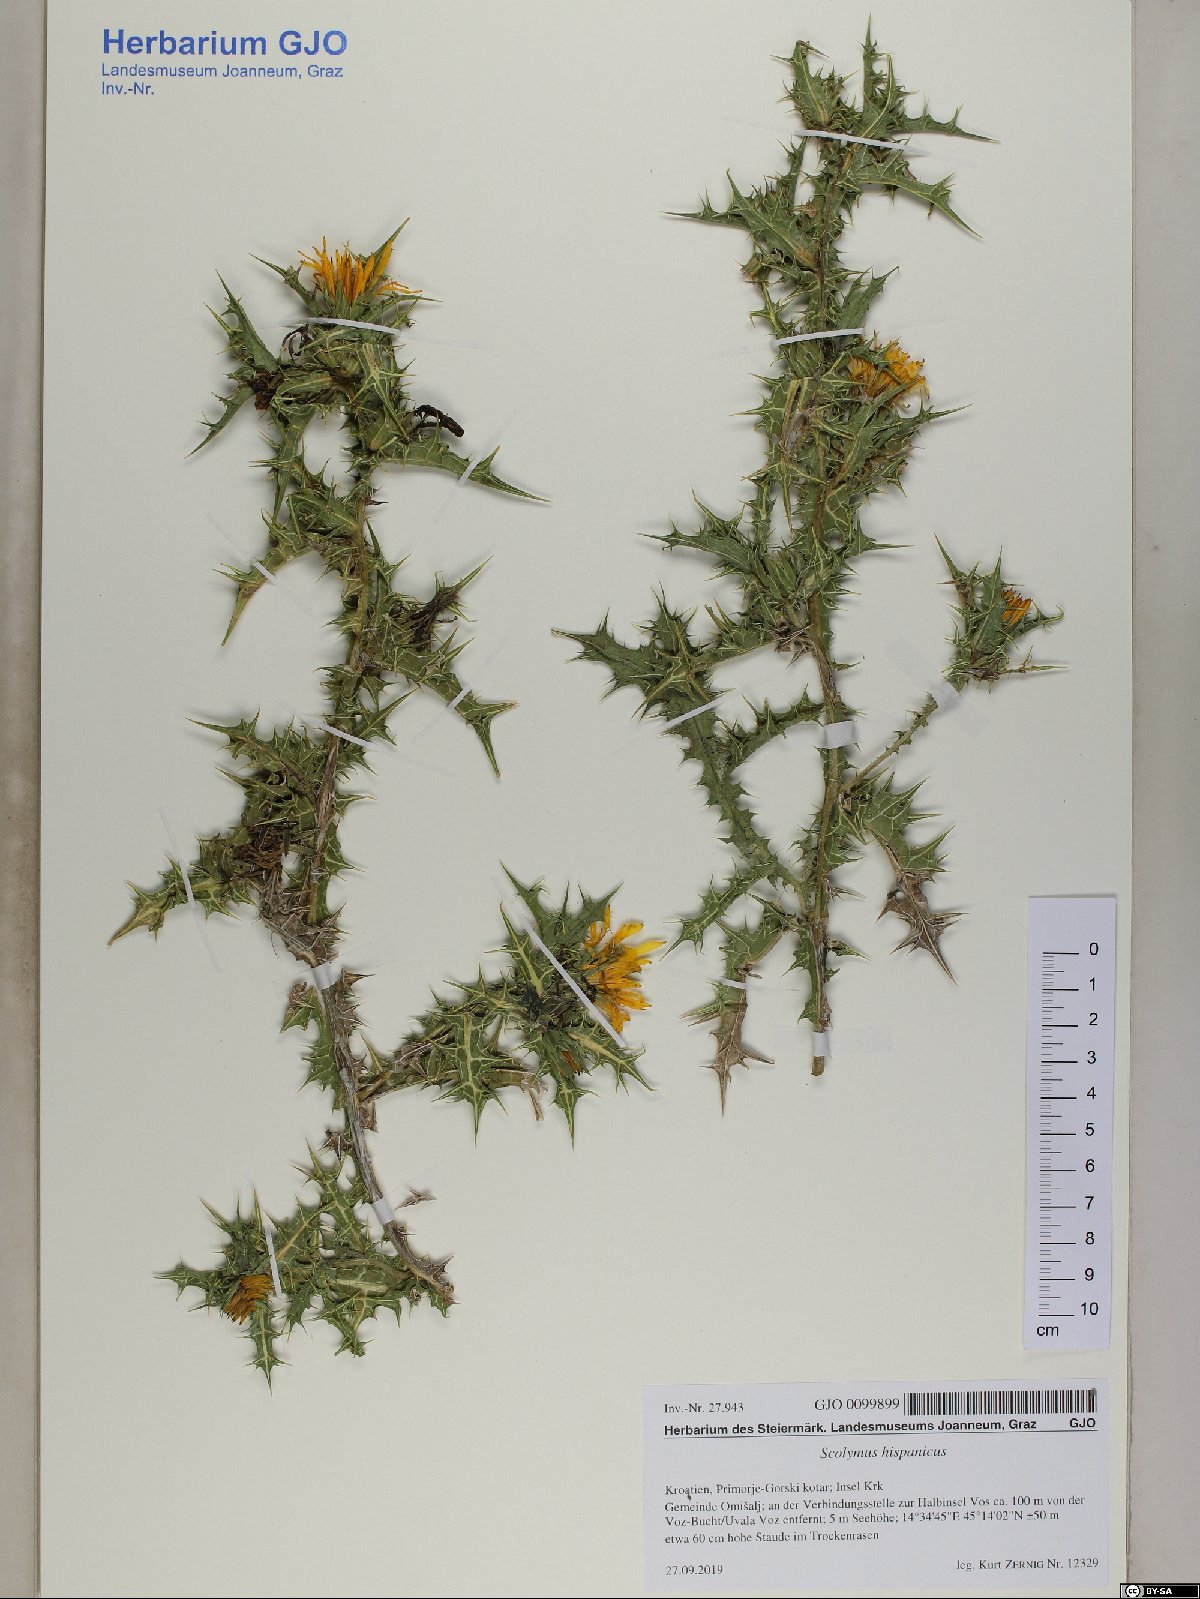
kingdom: Plantae
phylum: Tracheophyta
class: Magnoliopsida
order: Asterales
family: Asteraceae
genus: Scolymus
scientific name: Scolymus hispanicus
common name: Golden thistle
